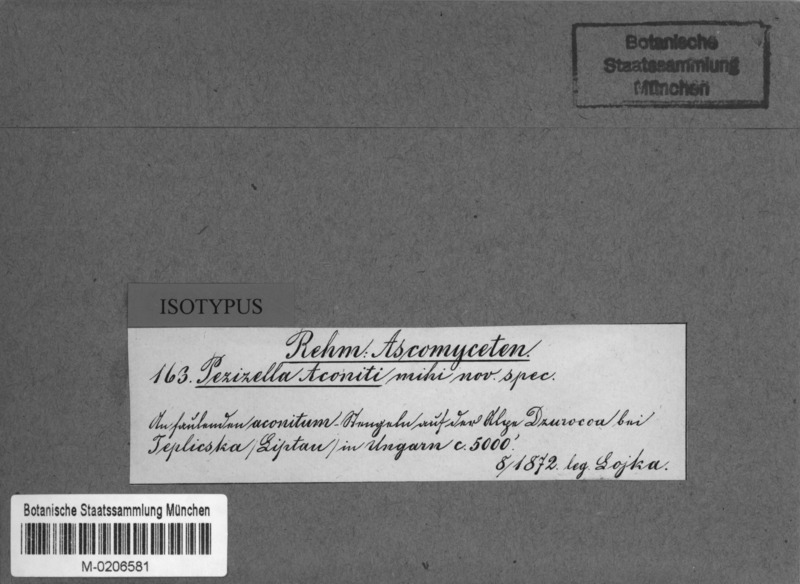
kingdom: Fungi
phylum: Ascomycota
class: Leotiomycetes
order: Helotiales
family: Hyaloscyphaceae
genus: Cistella
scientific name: Cistella aconiti
